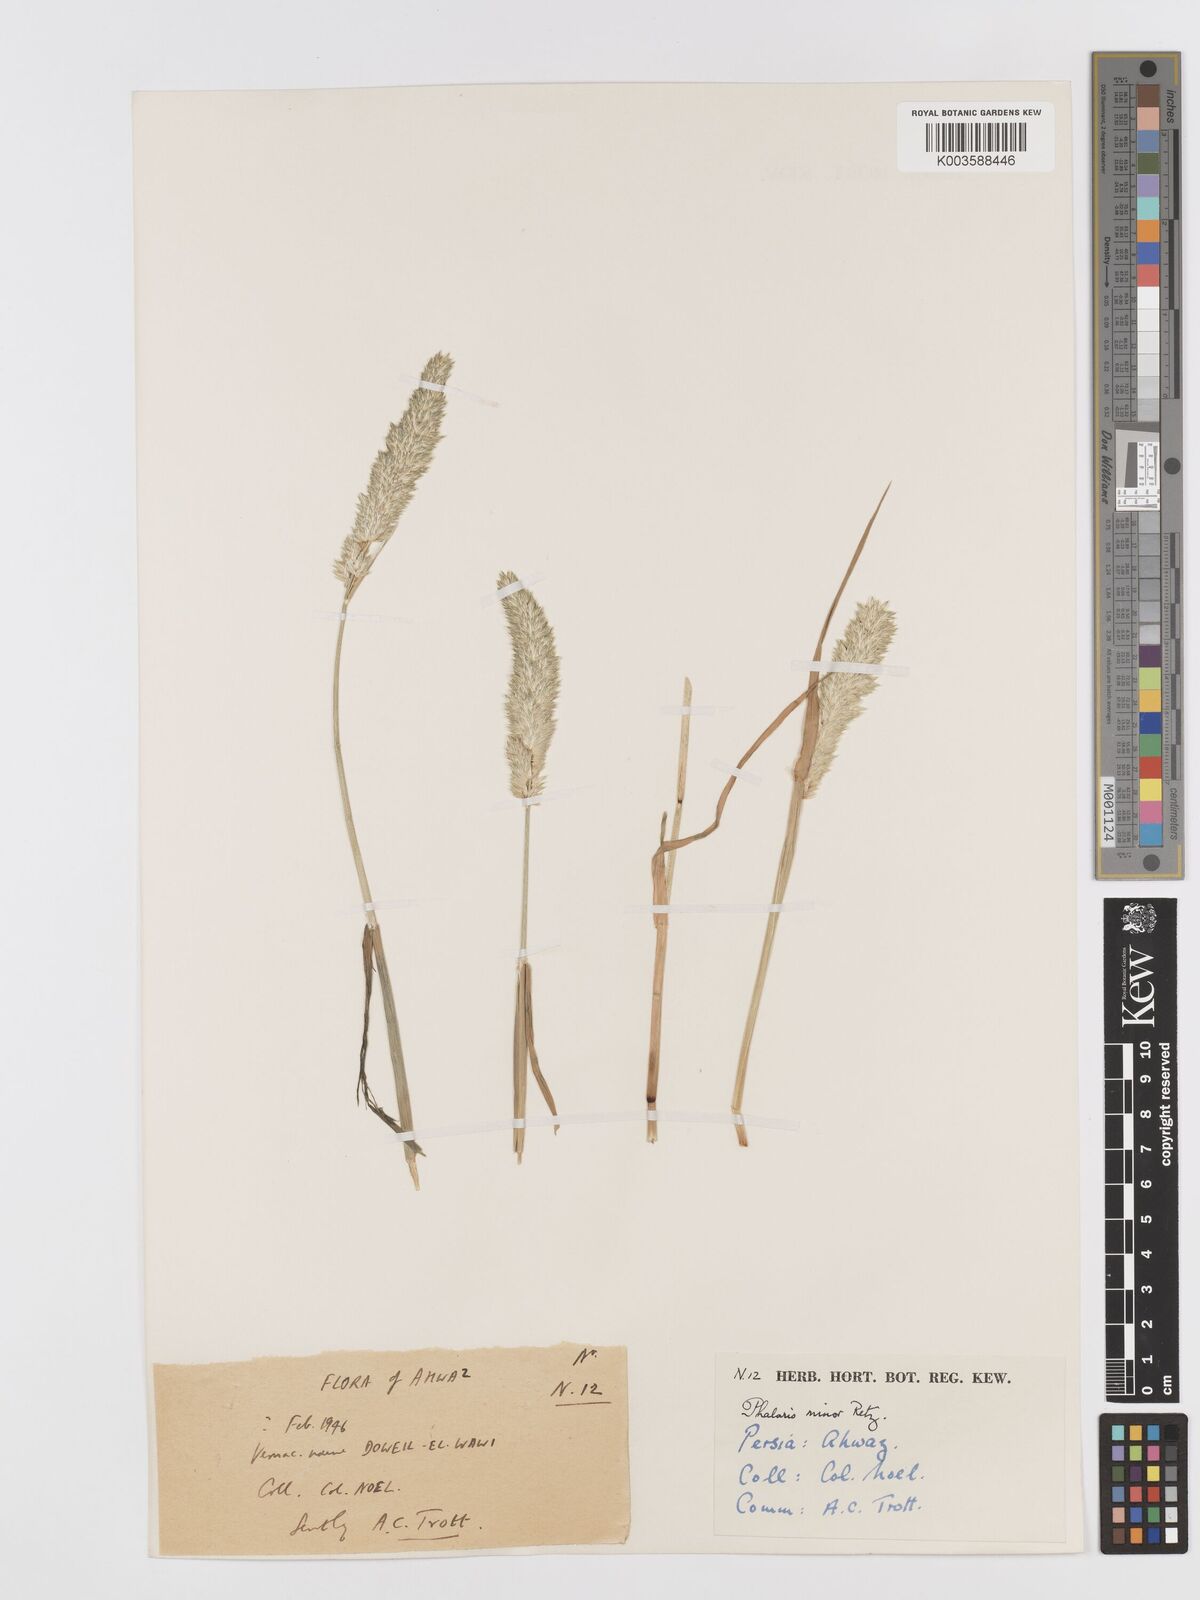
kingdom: Plantae
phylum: Tracheophyta
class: Liliopsida
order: Poales
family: Poaceae
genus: Phalaris
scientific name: Phalaris minor
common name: Littleseed canarygrass
